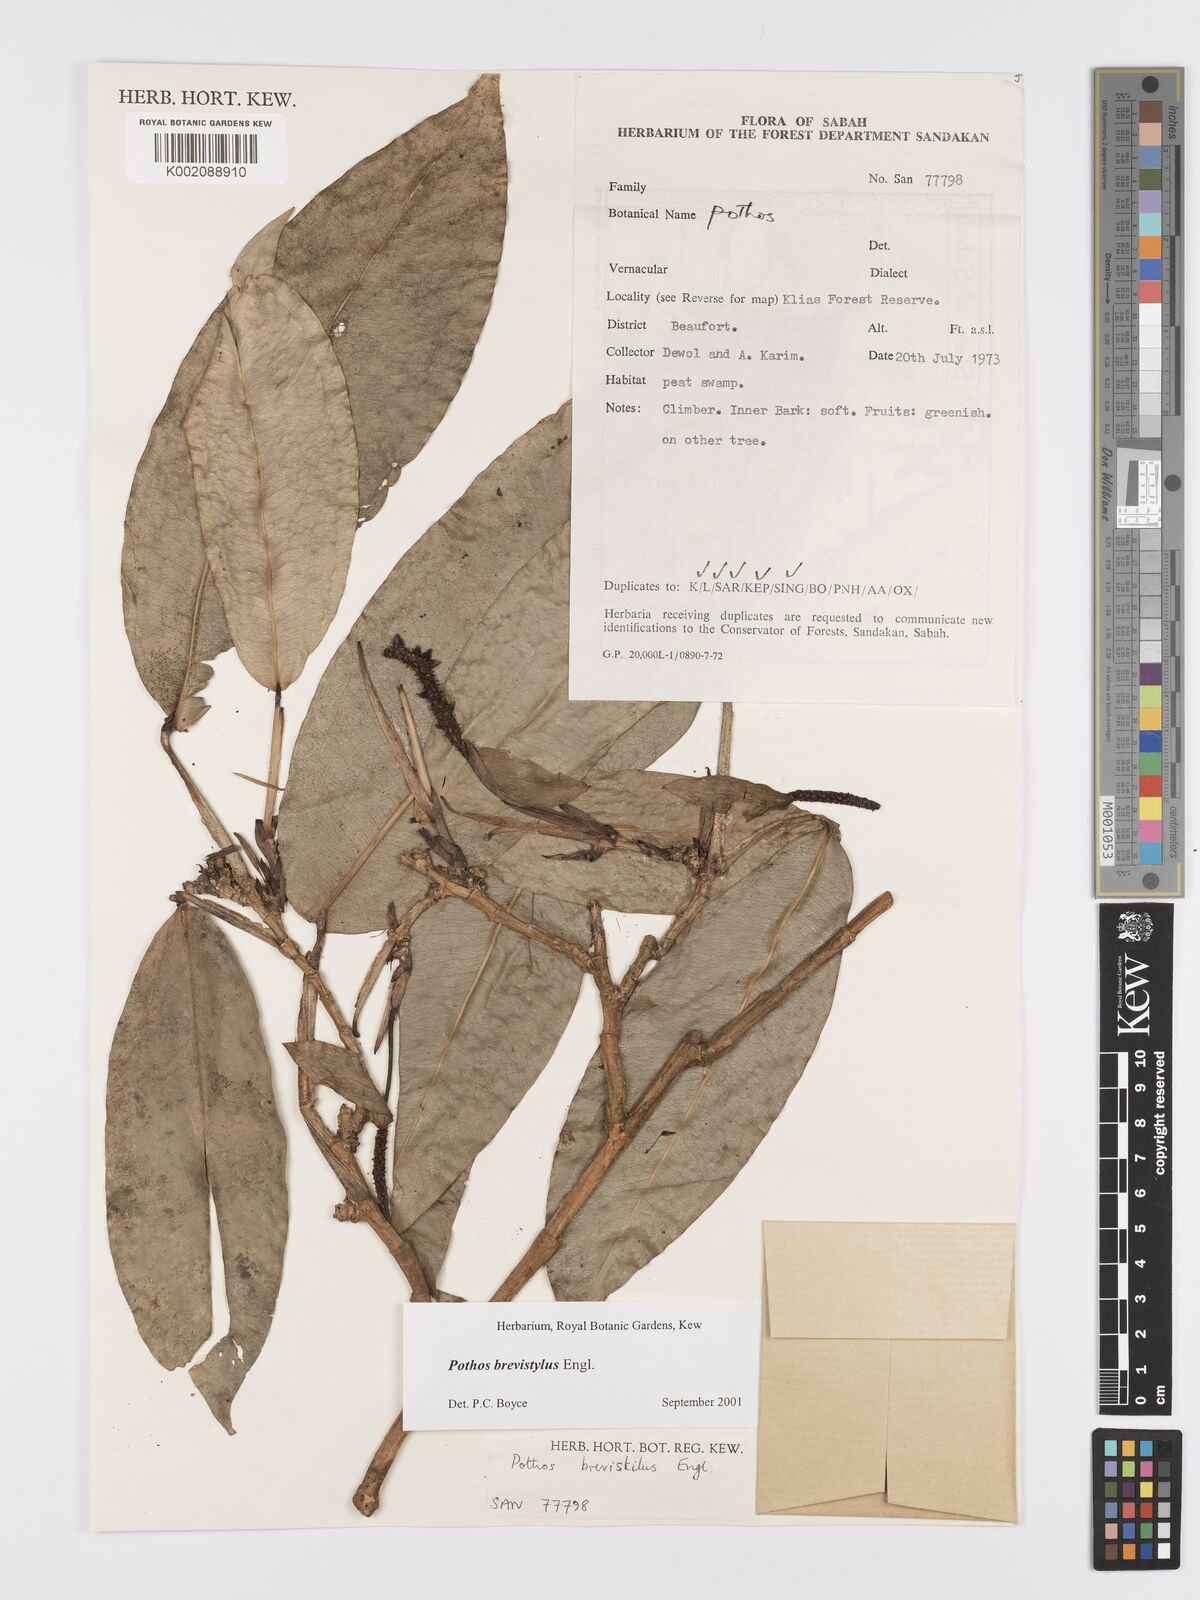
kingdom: Plantae
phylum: Tracheophyta
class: Liliopsida
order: Alismatales
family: Araceae
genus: Pothos
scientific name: Pothos brevistylus
